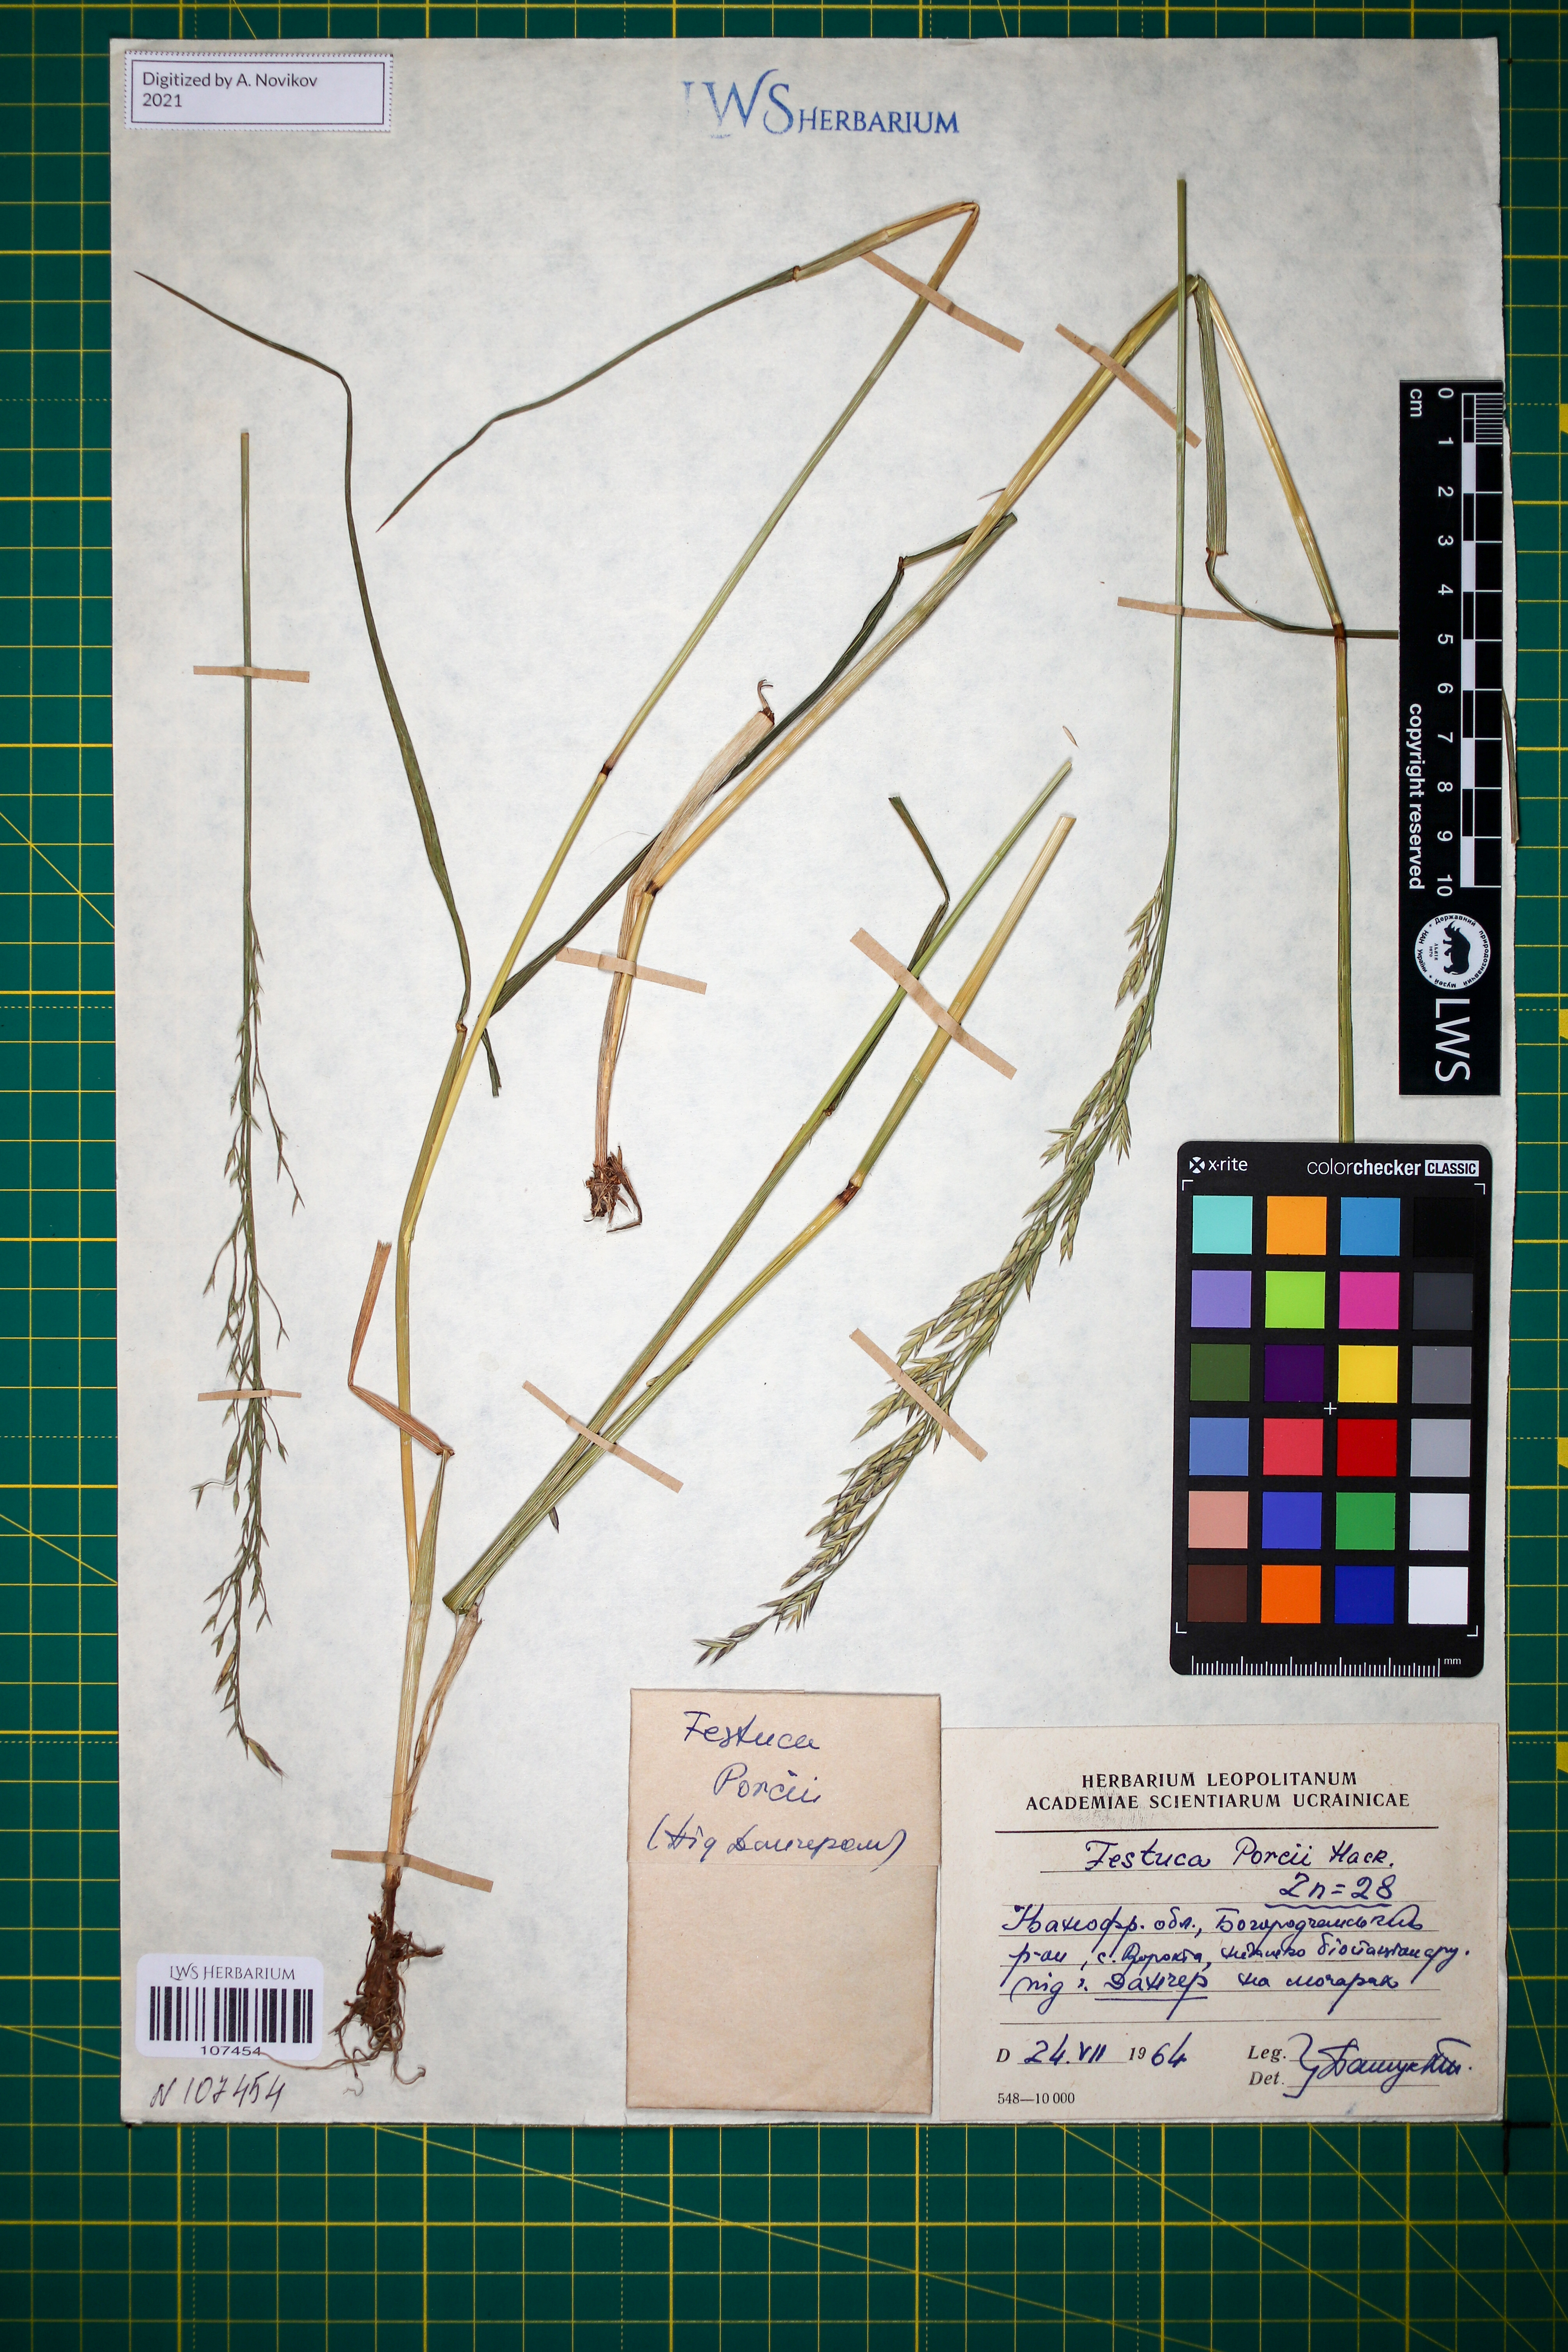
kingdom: Plantae
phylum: Tracheophyta
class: Liliopsida
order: Poales
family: Poaceae
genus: Festuca
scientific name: Festuca porcii
